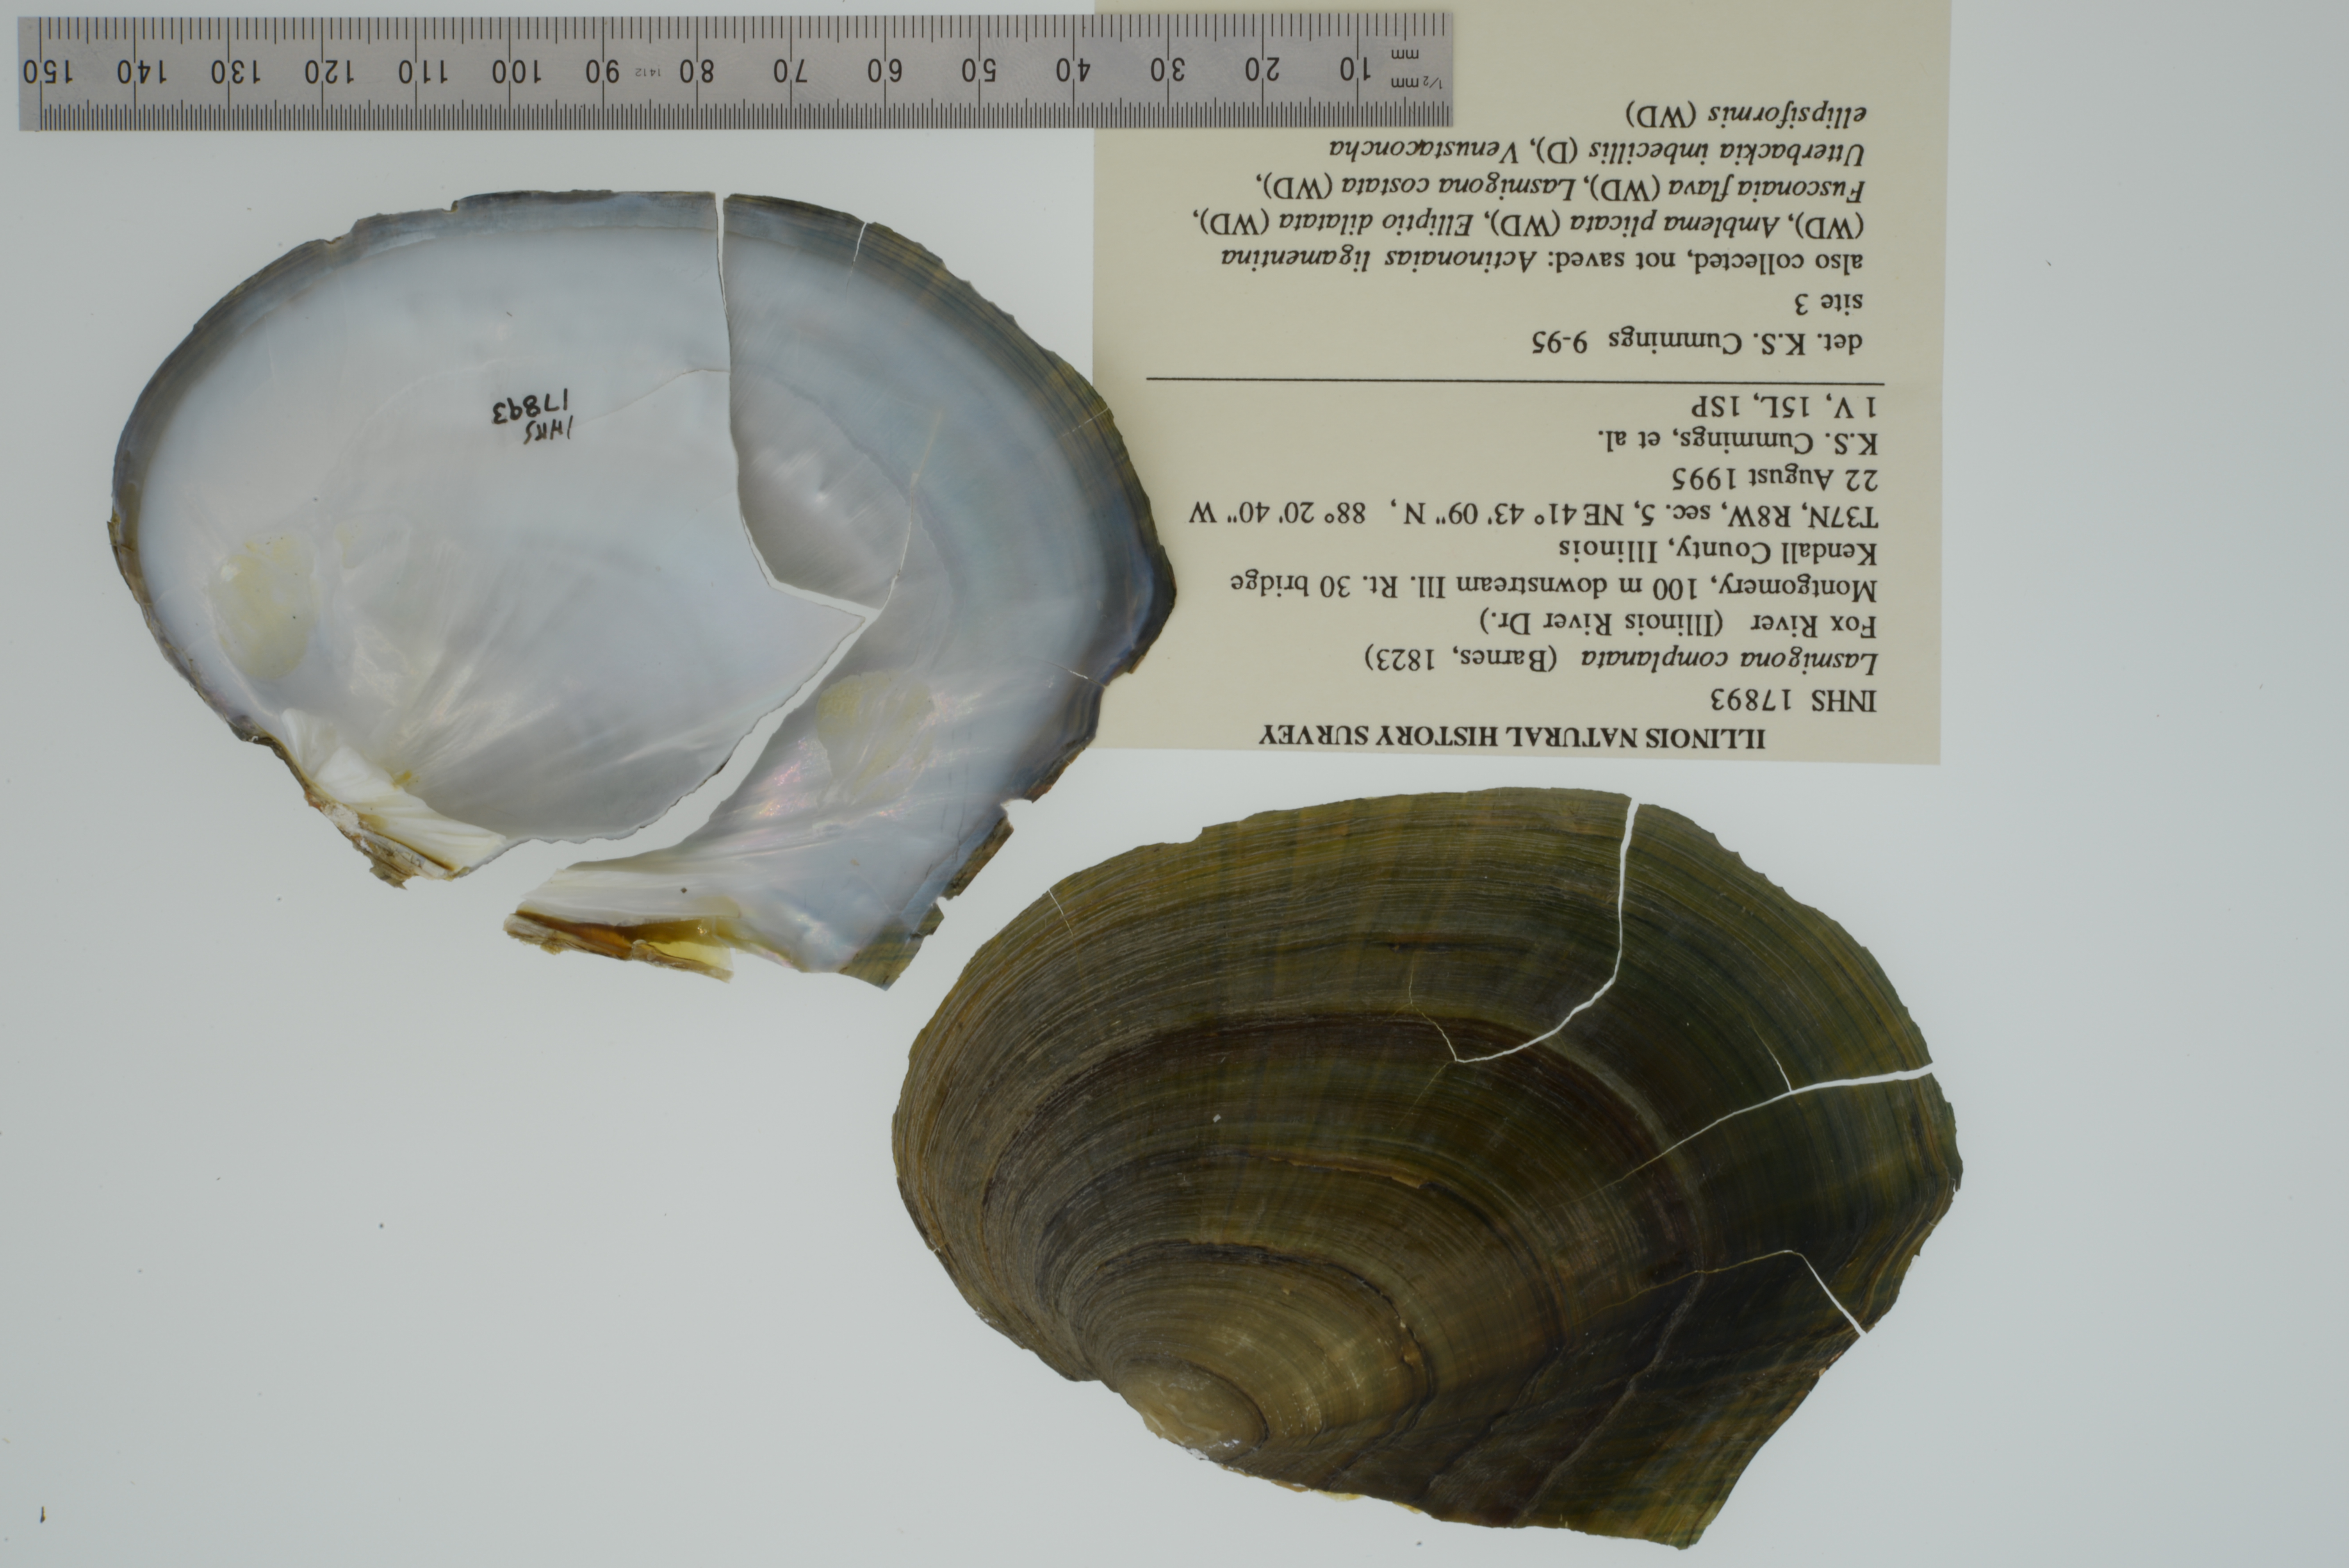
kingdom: Animalia
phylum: Mollusca
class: Bivalvia
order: Unionida
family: Unionidae
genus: Lasmigona
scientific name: Lasmigona complanata
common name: White heelsplitter
